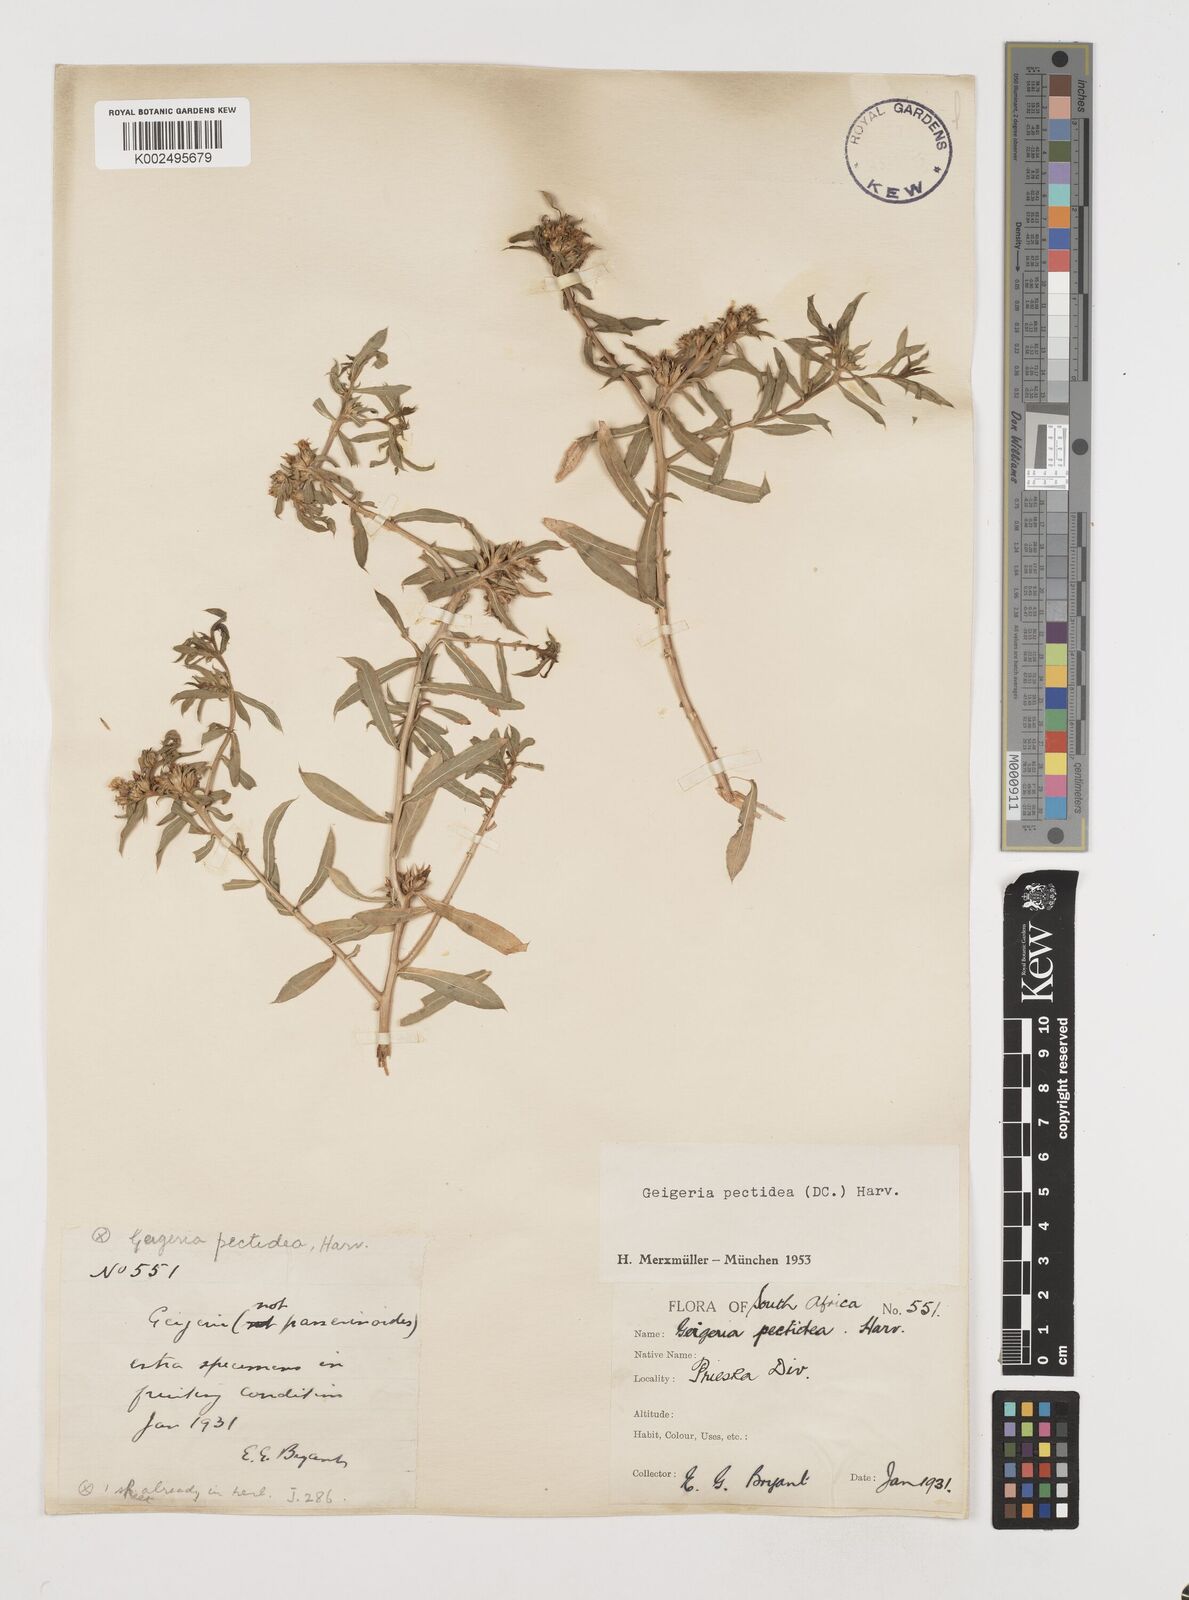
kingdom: Plantae
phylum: Tracheophyta
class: Magnoliopsida
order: Asterales
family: Asteraceae
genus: Geigeria
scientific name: Geigeria pectidea
